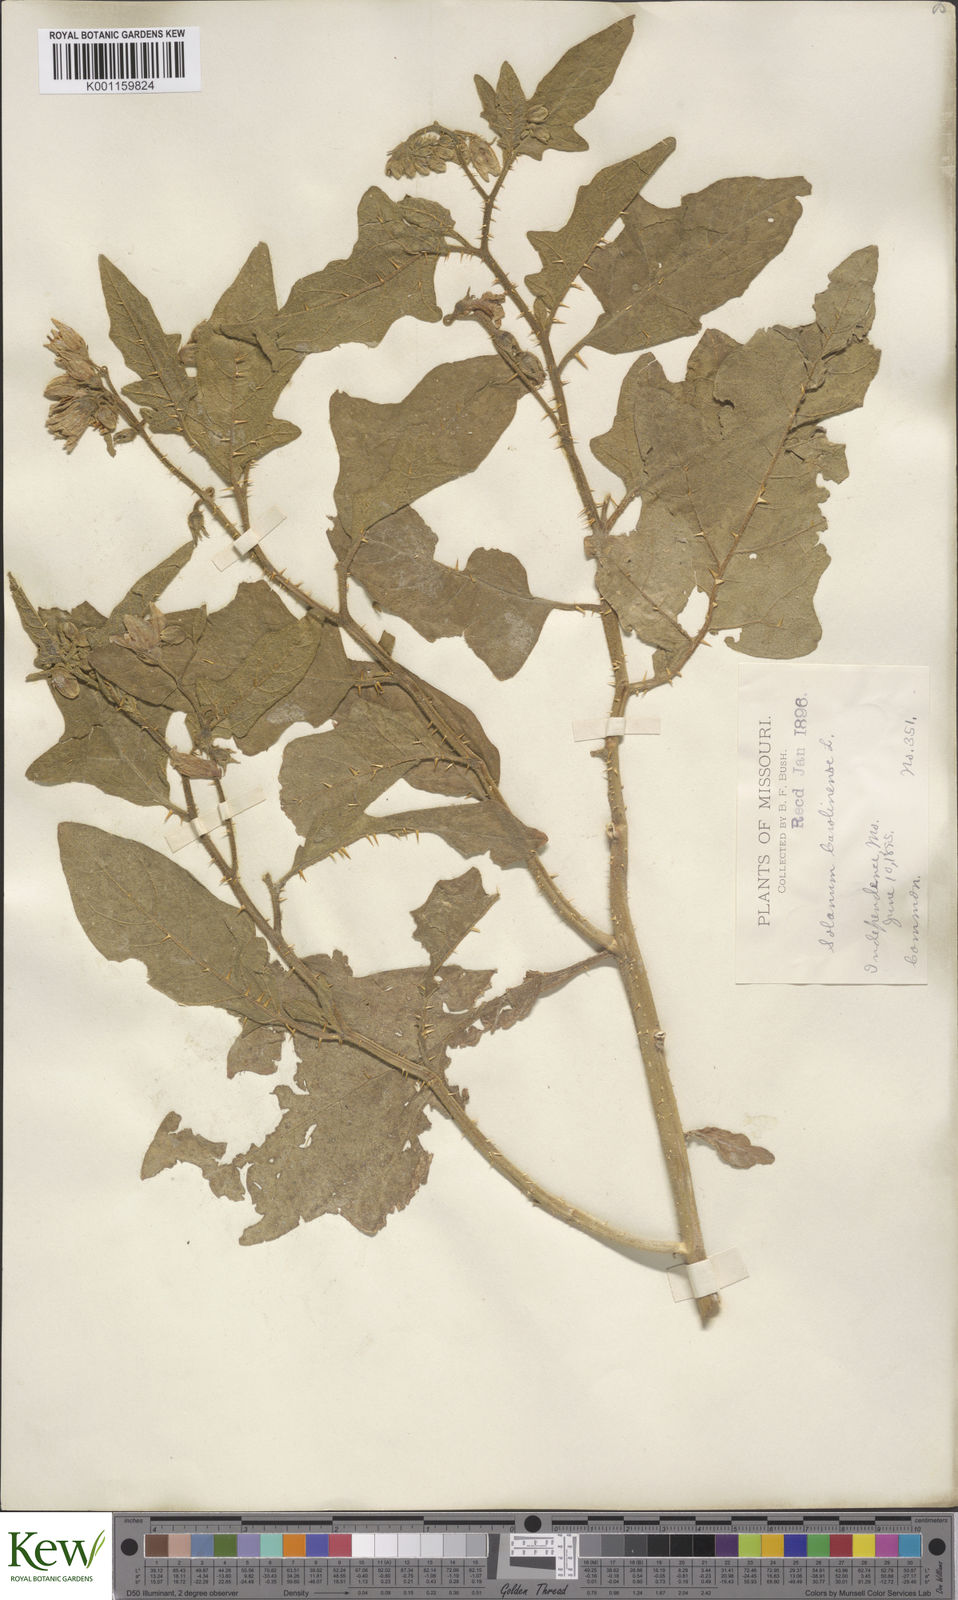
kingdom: Plantae
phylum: Tracheophyta
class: Magnoliopsida
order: Solanales
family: Solanaceae
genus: Solanum
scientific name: Solanum carolinense
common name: Horse-nettle
